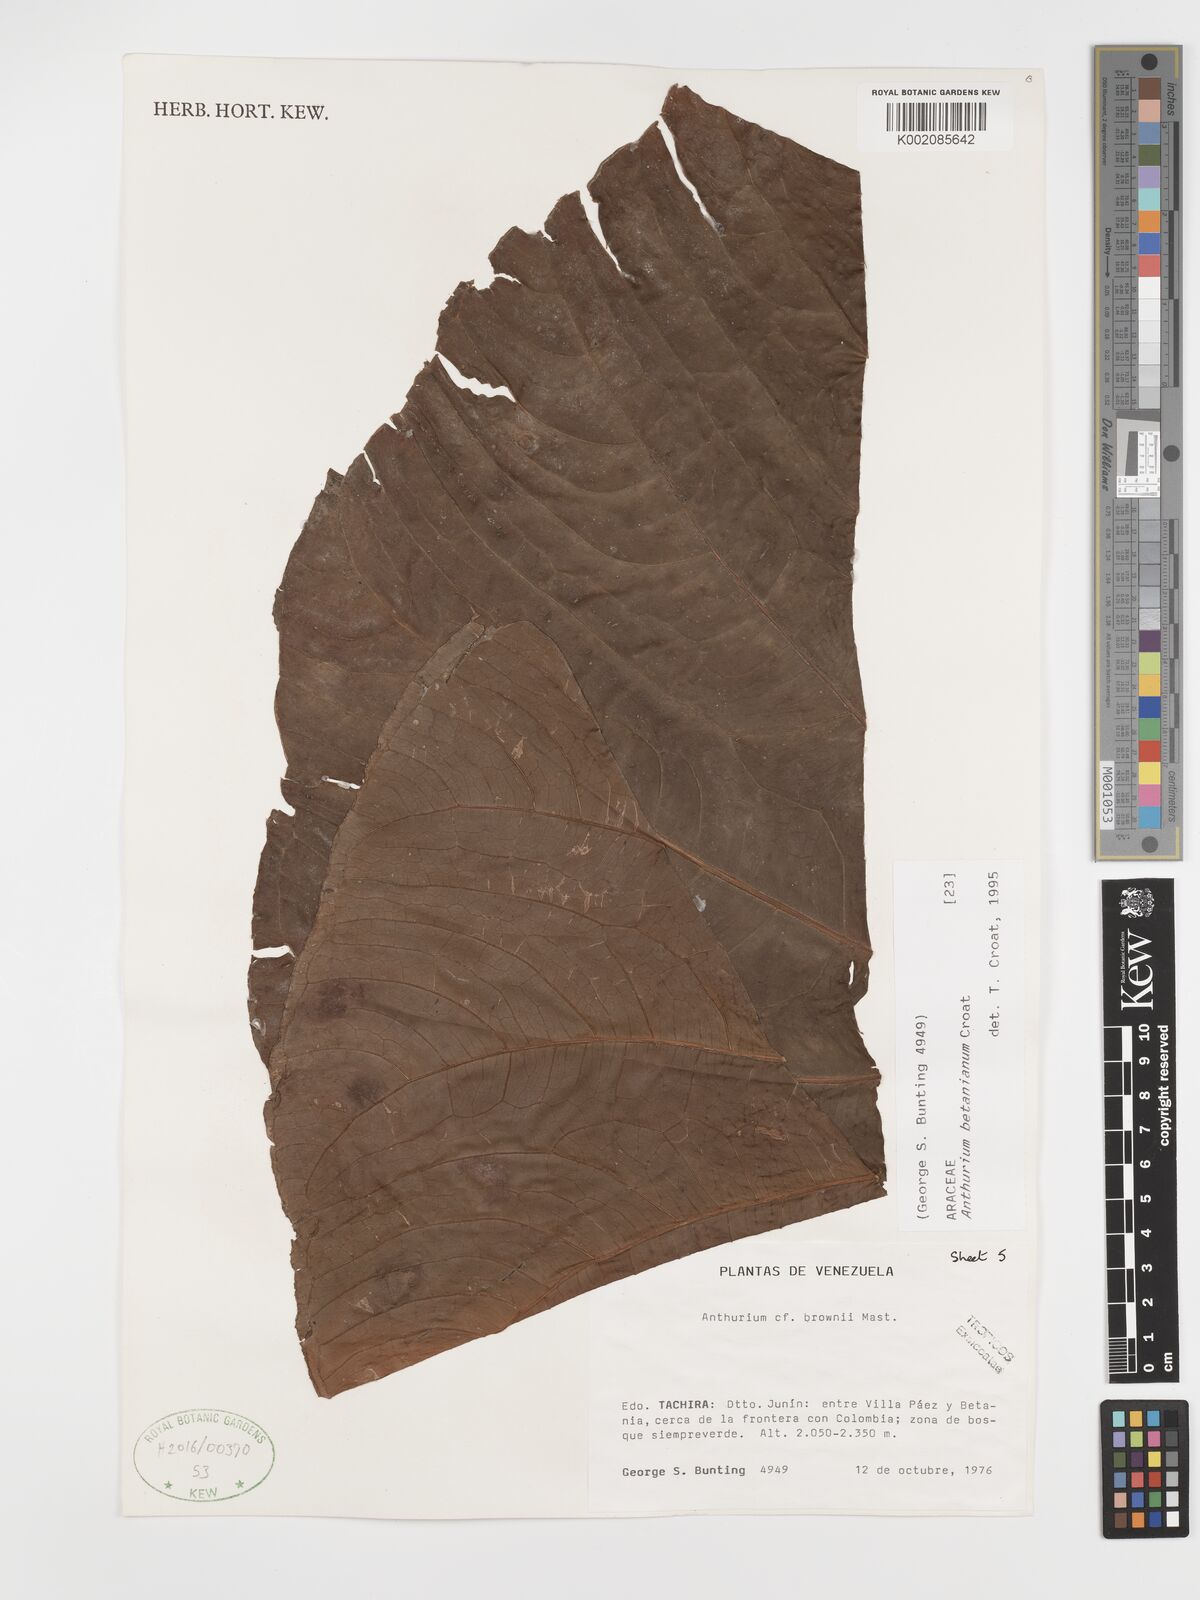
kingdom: Plantae
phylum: Tracheophyta
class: Liliopsida
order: Alismatales
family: Araceae
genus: Anthurium
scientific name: Anthurium betanianum
